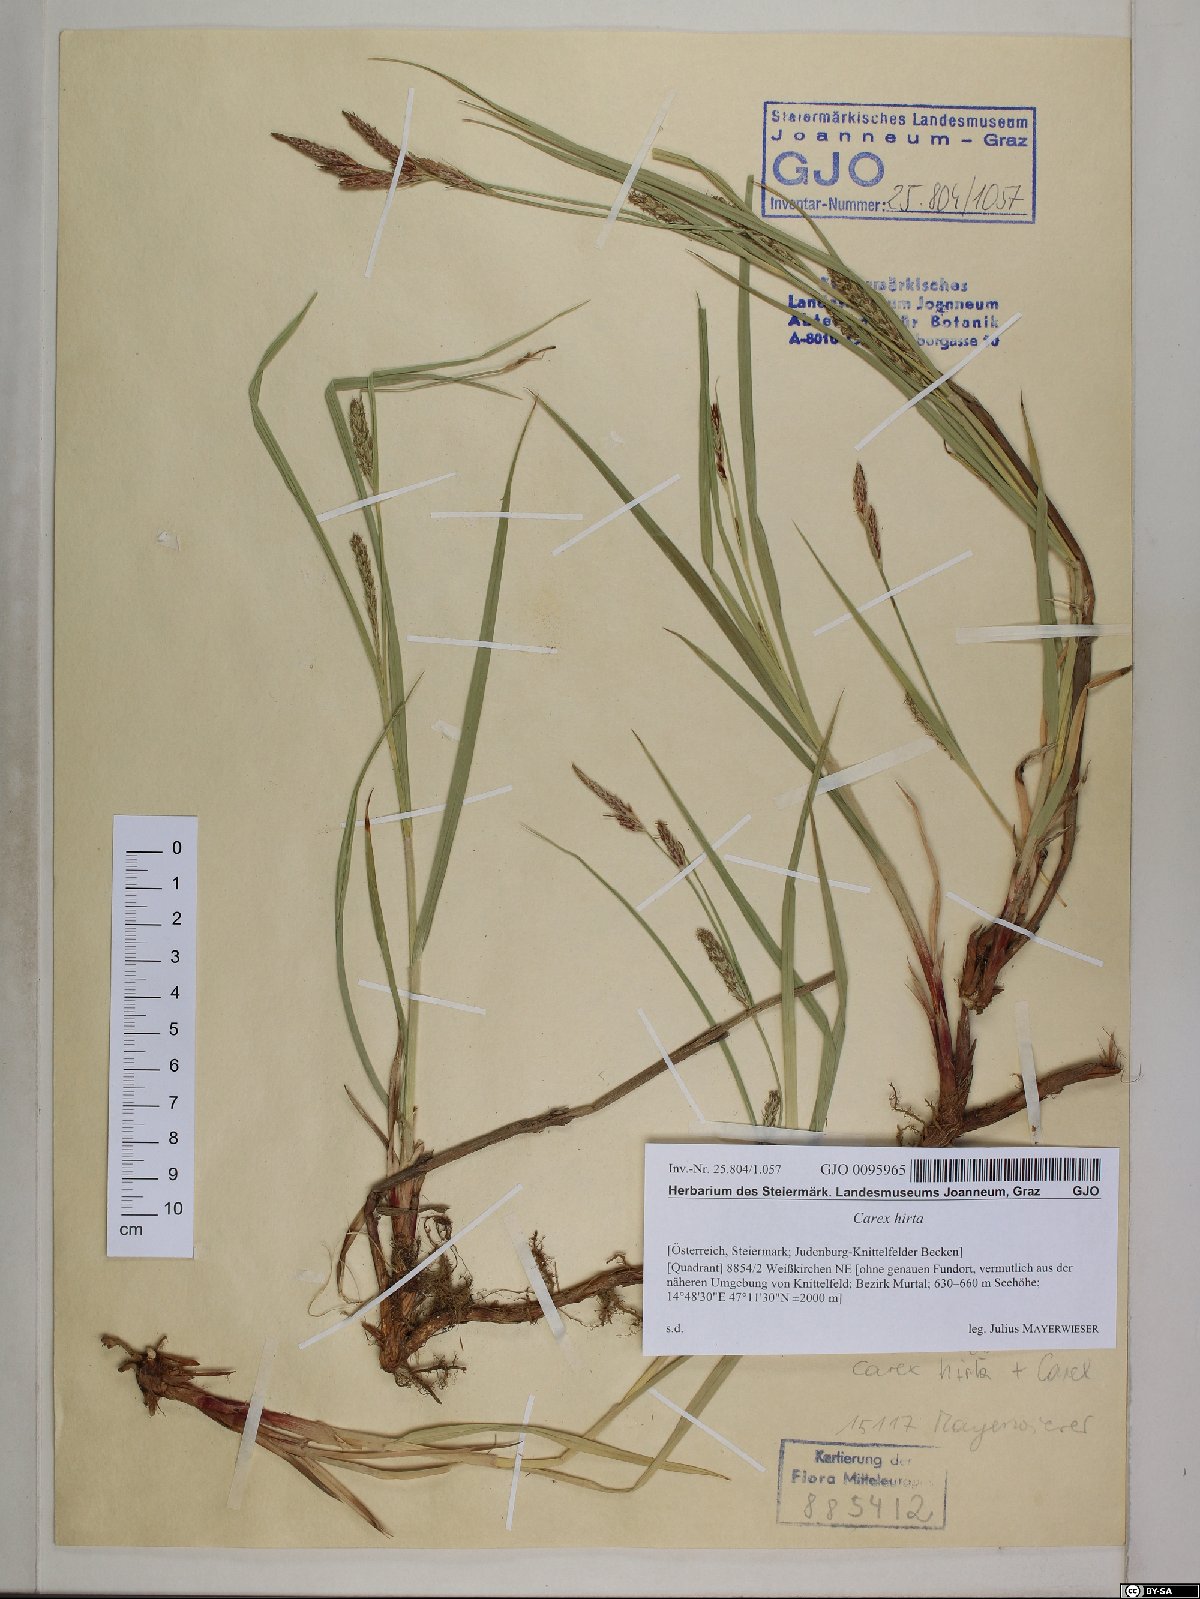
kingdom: Plantae
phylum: Tracheophyta
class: Liliopsida
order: Poales
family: Cyperaceae
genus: Carex
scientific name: Carex hirta
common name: Hairy sedge
